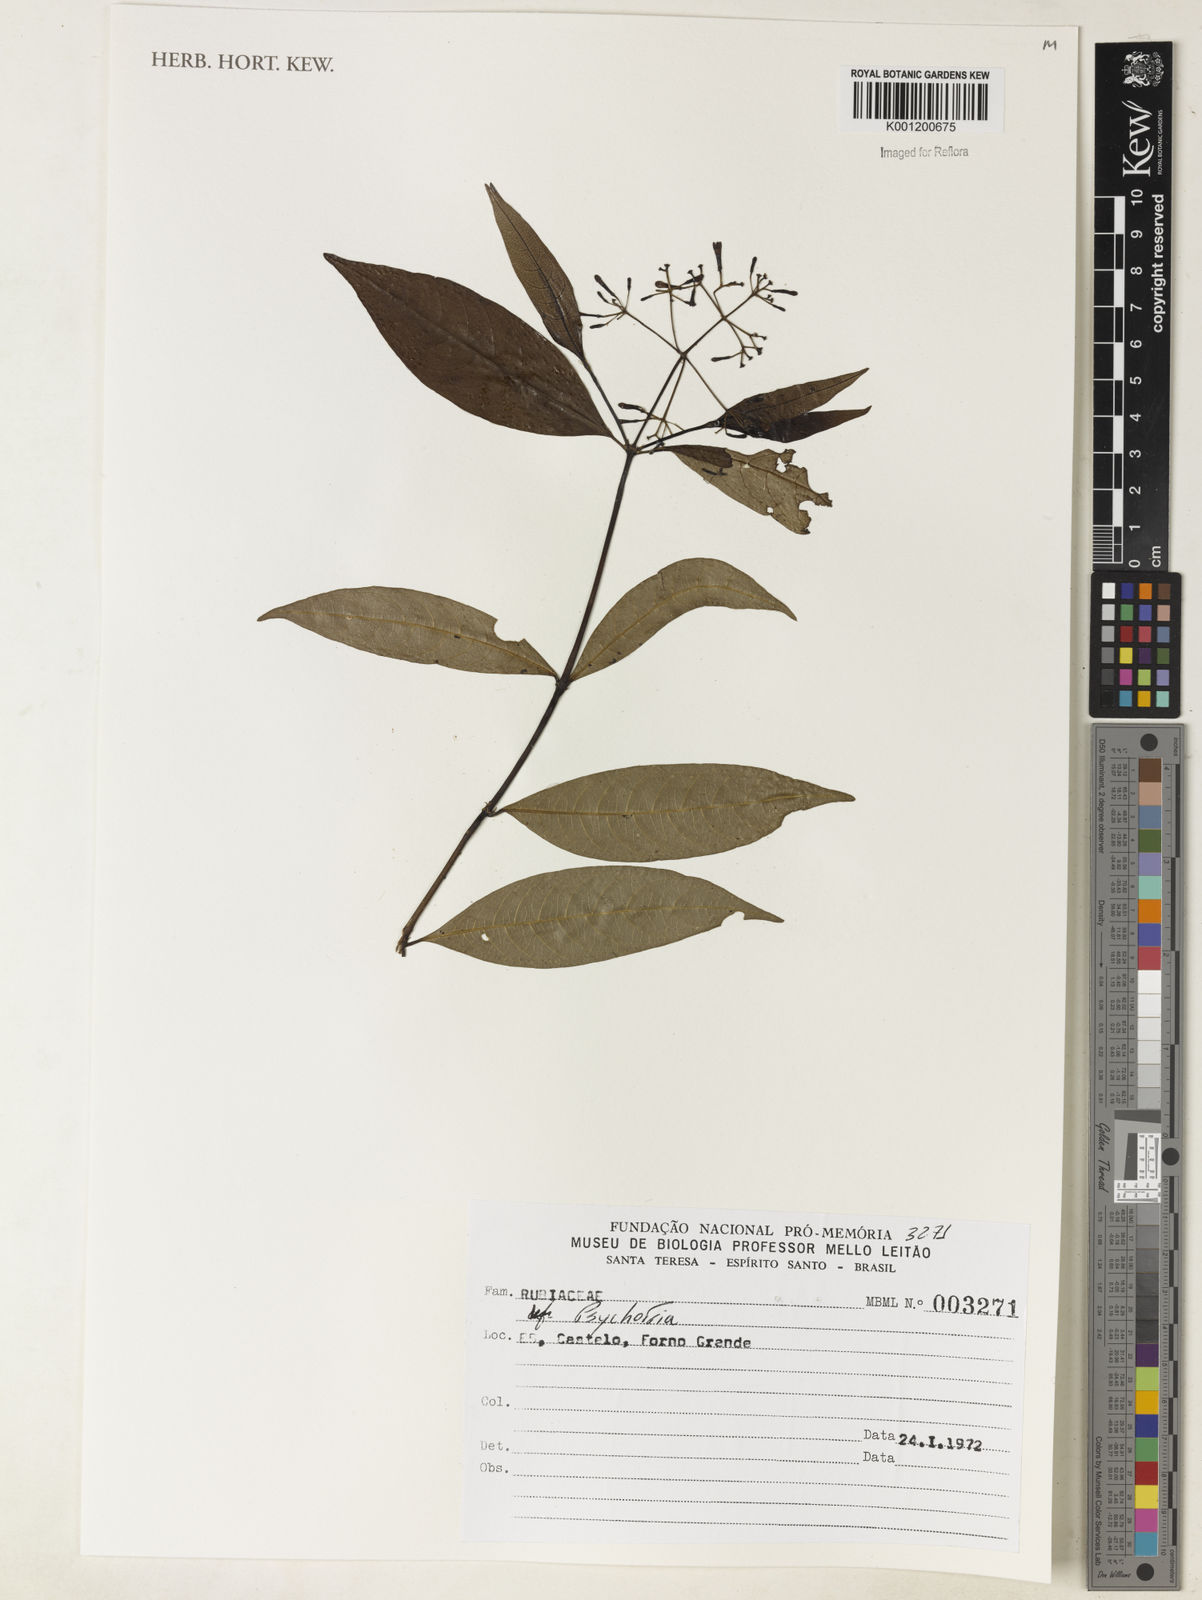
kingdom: Plantae
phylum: Tracheophyta
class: Magnoliopsida
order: Gentianales
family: Rubiaceae
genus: Psychotria
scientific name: Psychotria
